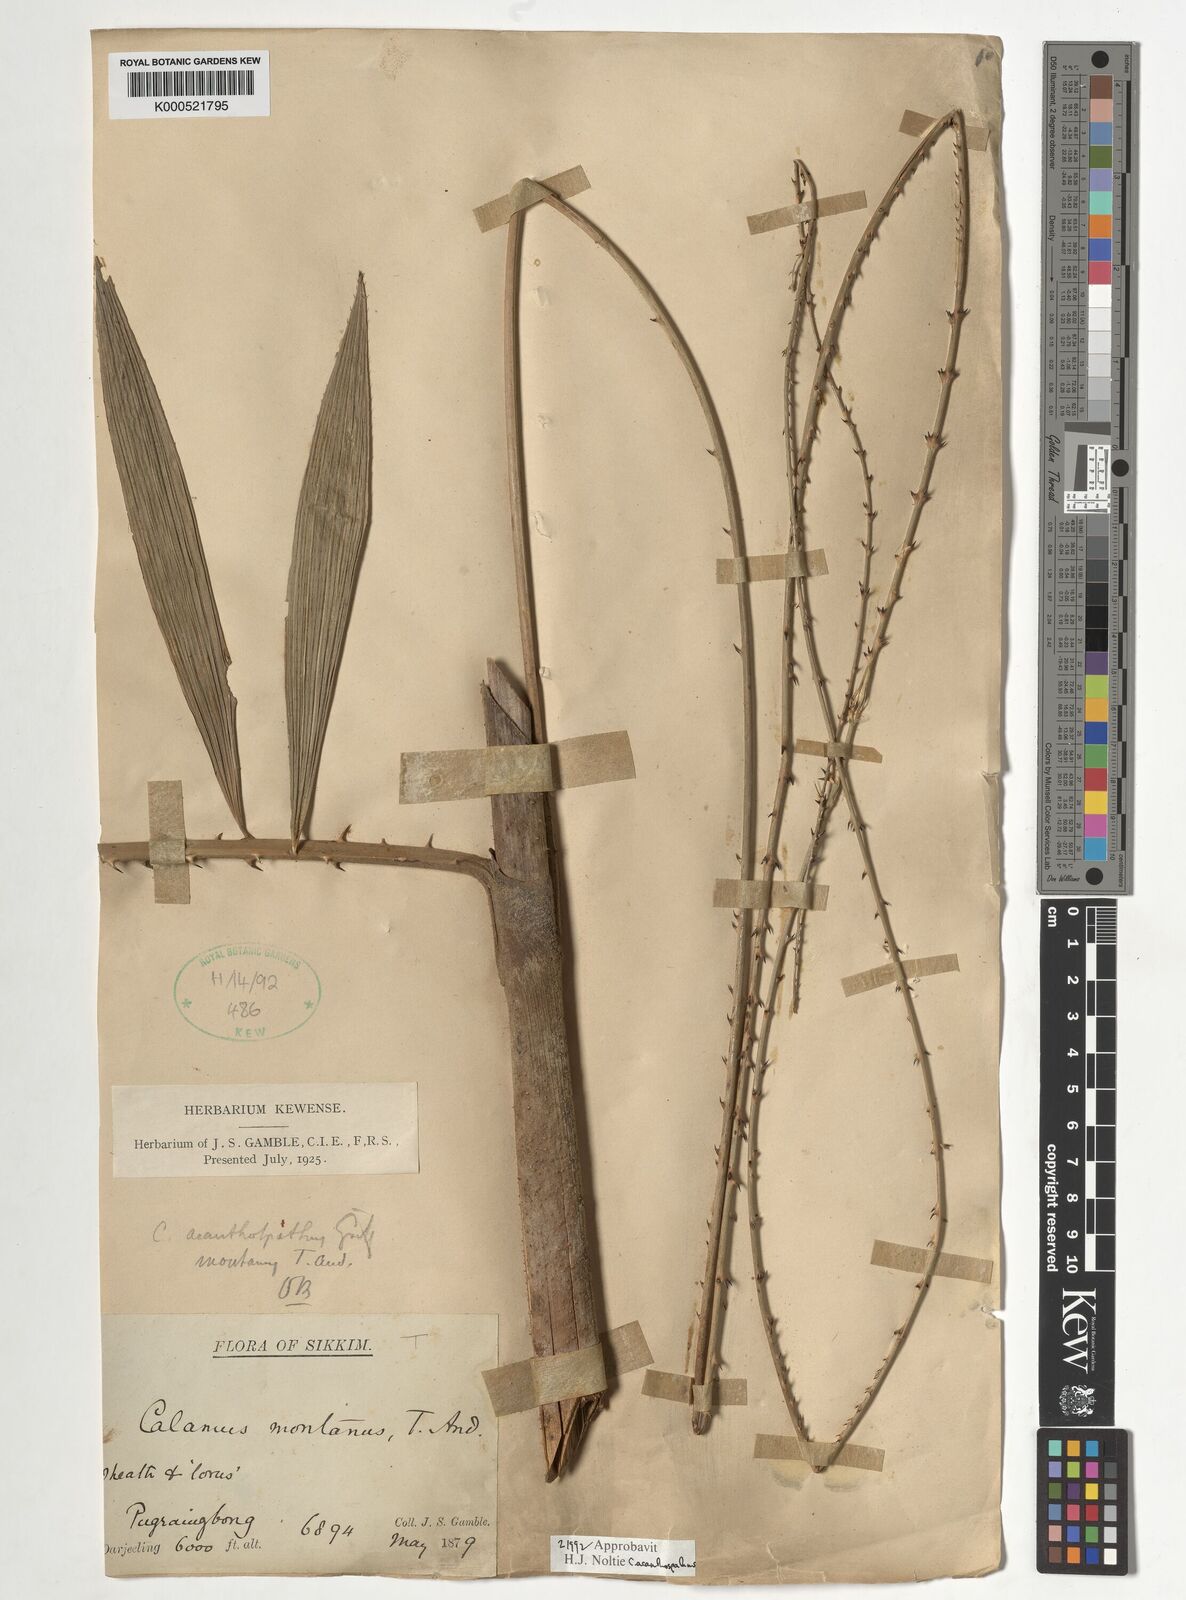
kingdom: Plantae
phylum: Tracheophyta
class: Liliopsida
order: Arecales
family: Arecaceae
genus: Calamus
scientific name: Calamus acanthospathus
